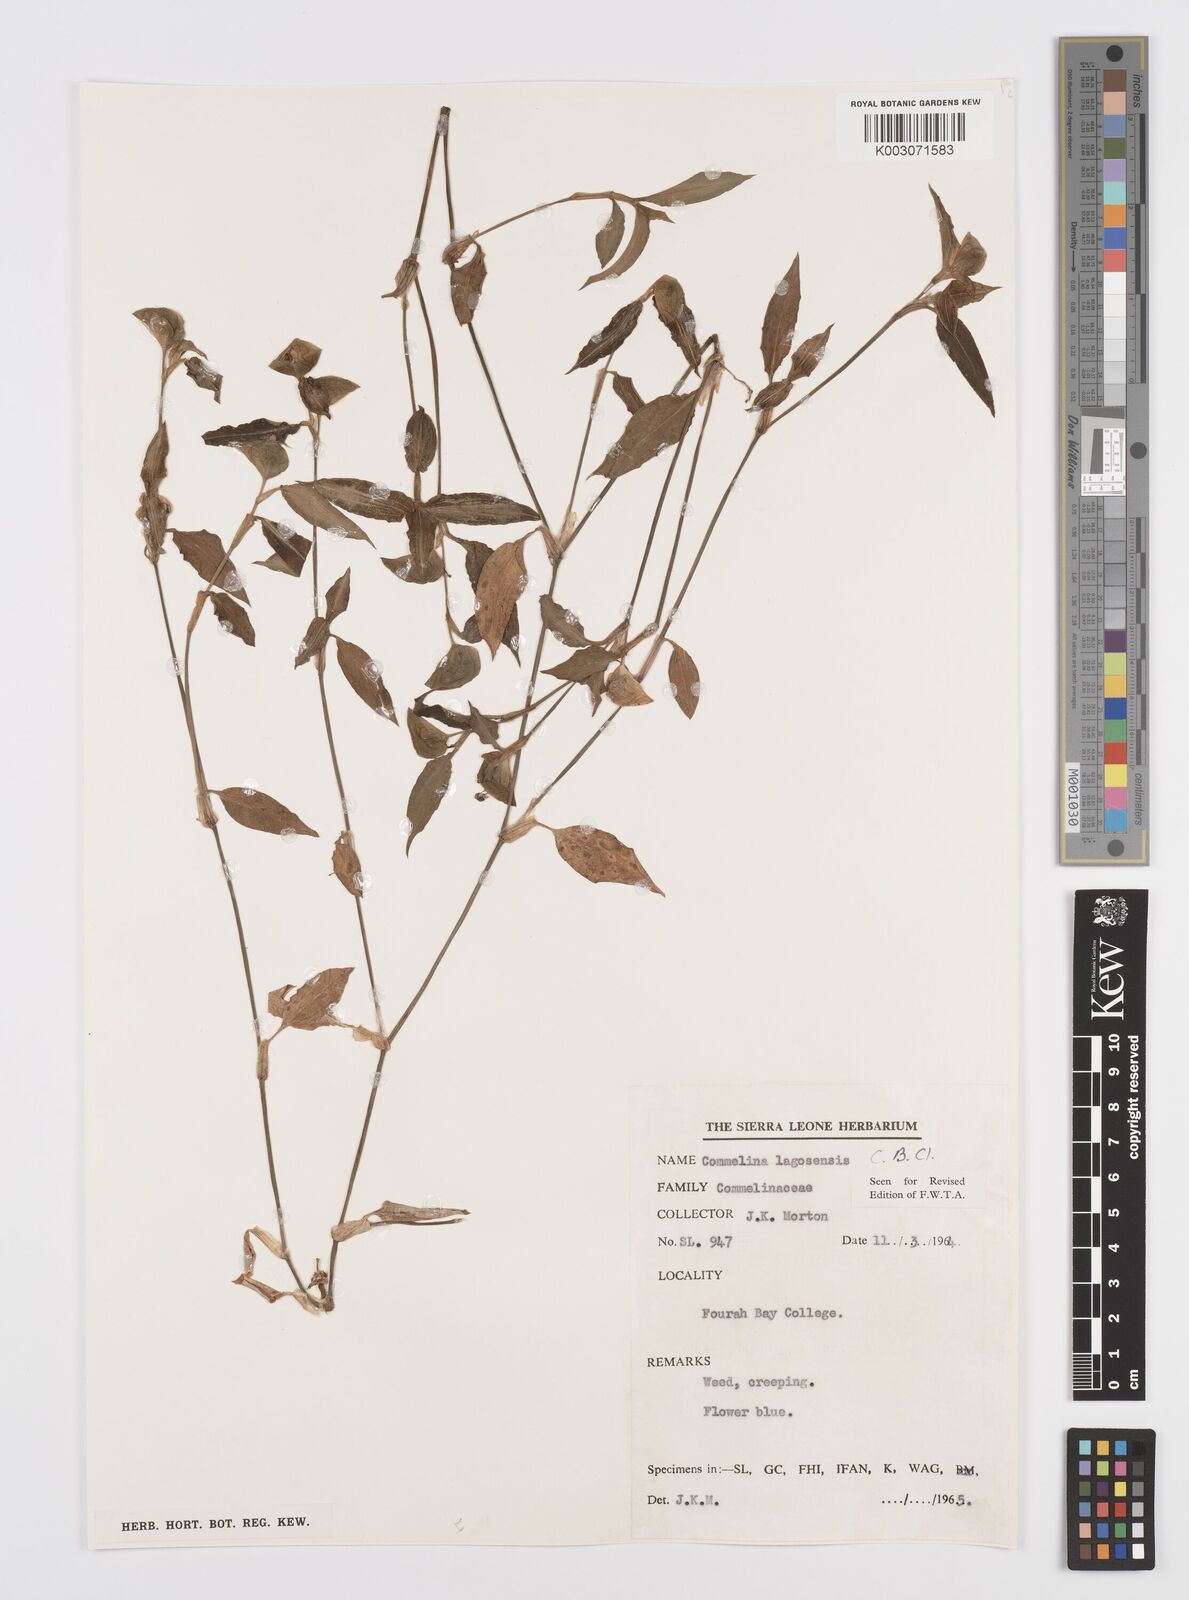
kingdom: Plantae
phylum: Tracheophyta
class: Liliopsida
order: Commelinales
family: Commelinaceae
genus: Commelina
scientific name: Commelina bracteosa
